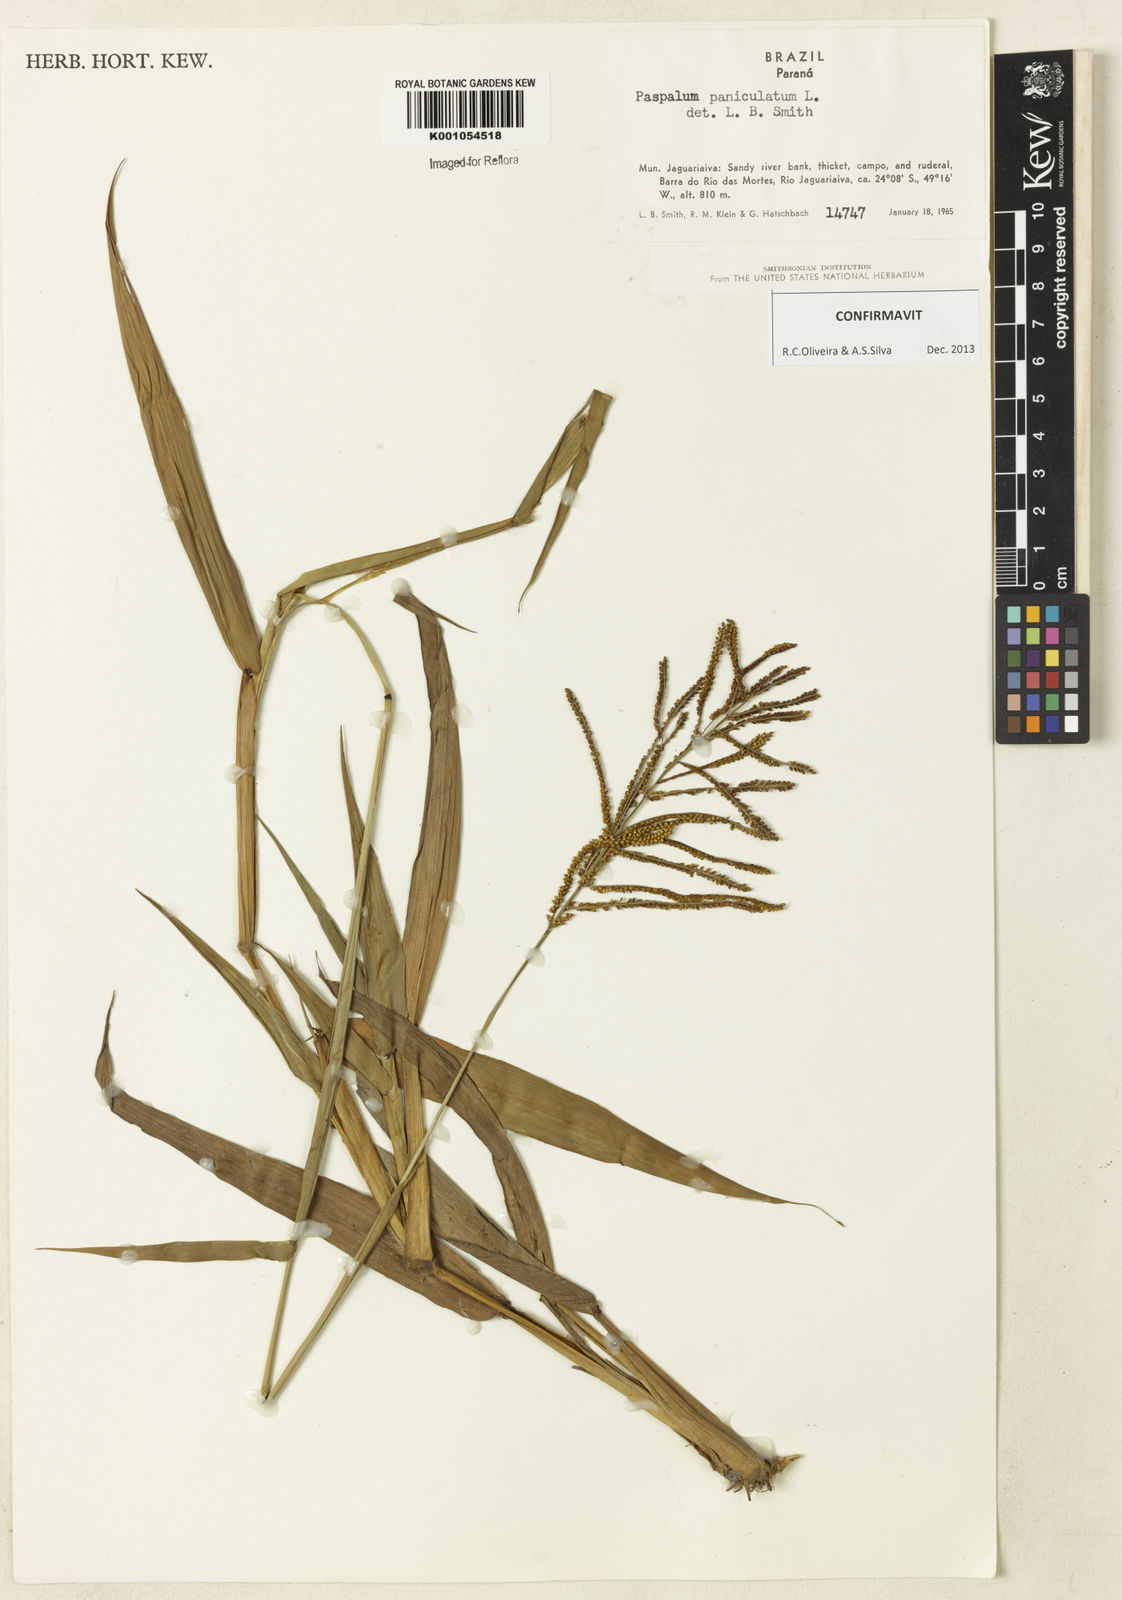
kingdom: Plantae
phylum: Tracheophyta
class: Liliopsida
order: Poales
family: Poaceae
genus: Paspalum
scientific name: Paspalum paniculatum
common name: Arrocillo
